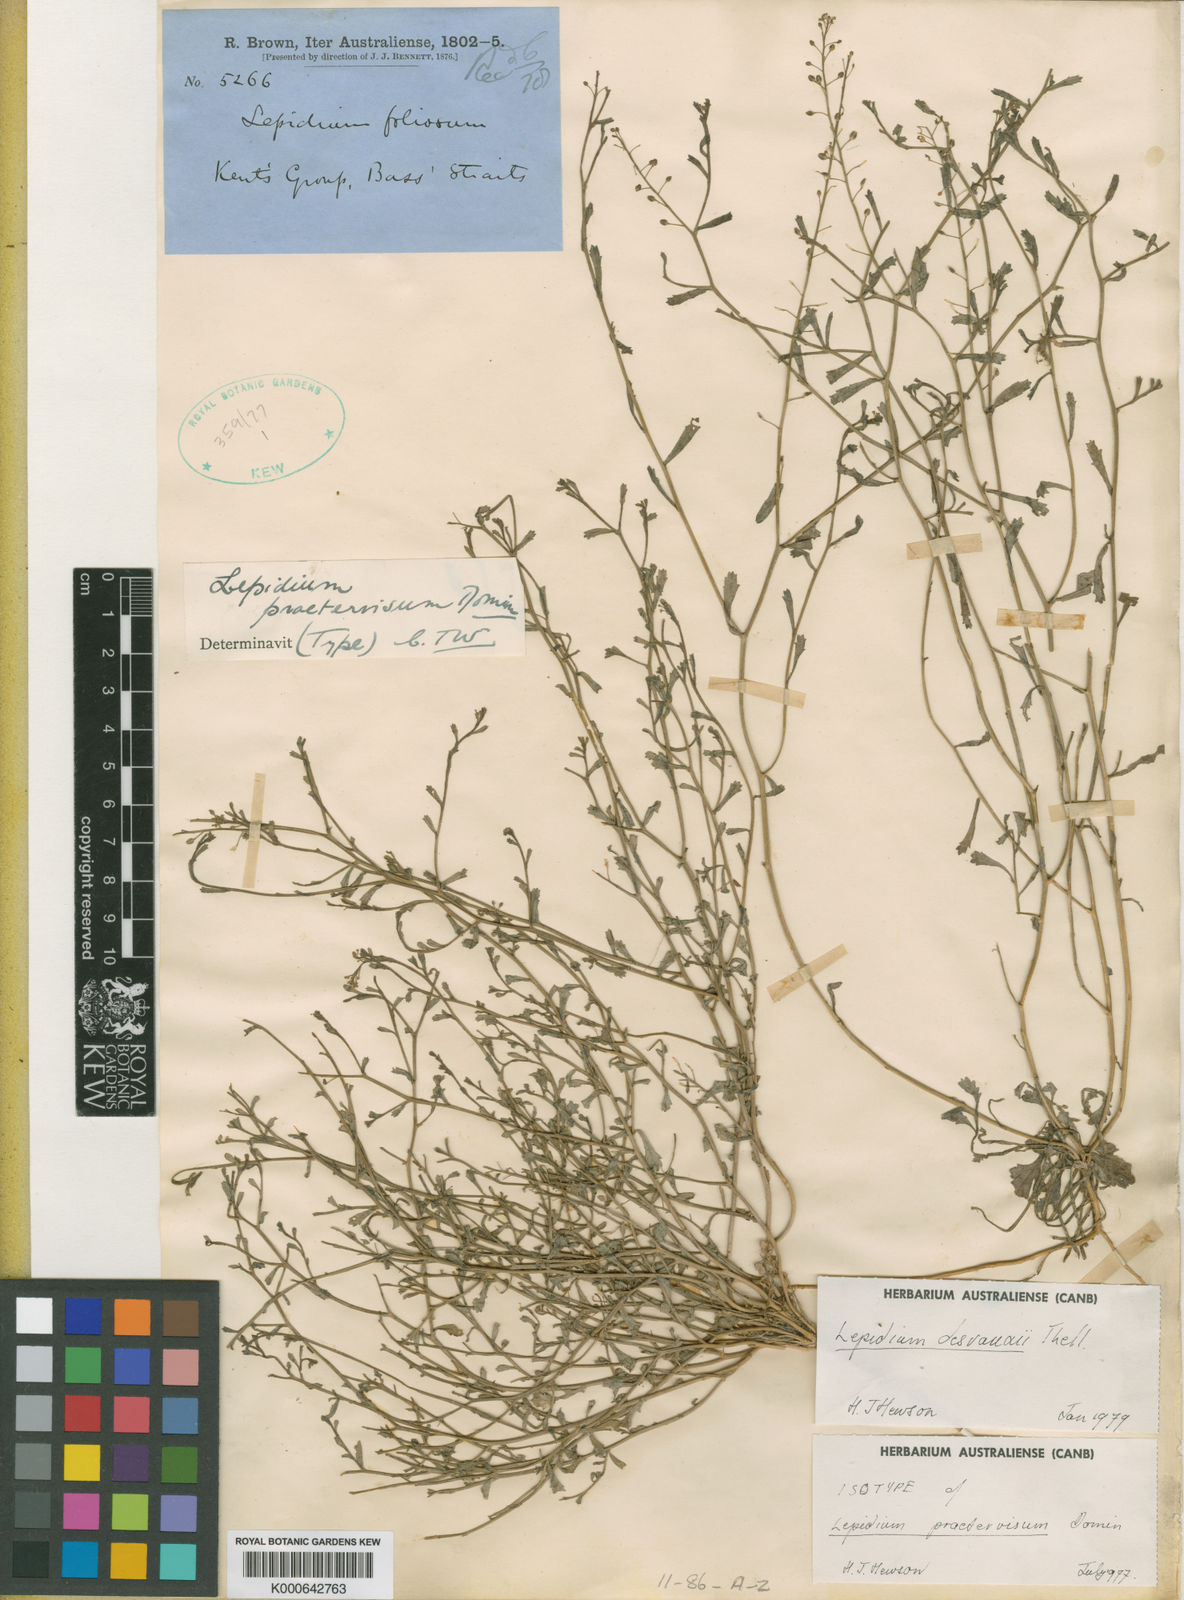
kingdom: Plantae
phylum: Tracheophyta
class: Magnoliopsida
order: Brassicales
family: Brassicaceae
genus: Lepidium
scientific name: Lepidium desvauxii
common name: Bushy pepperwort
